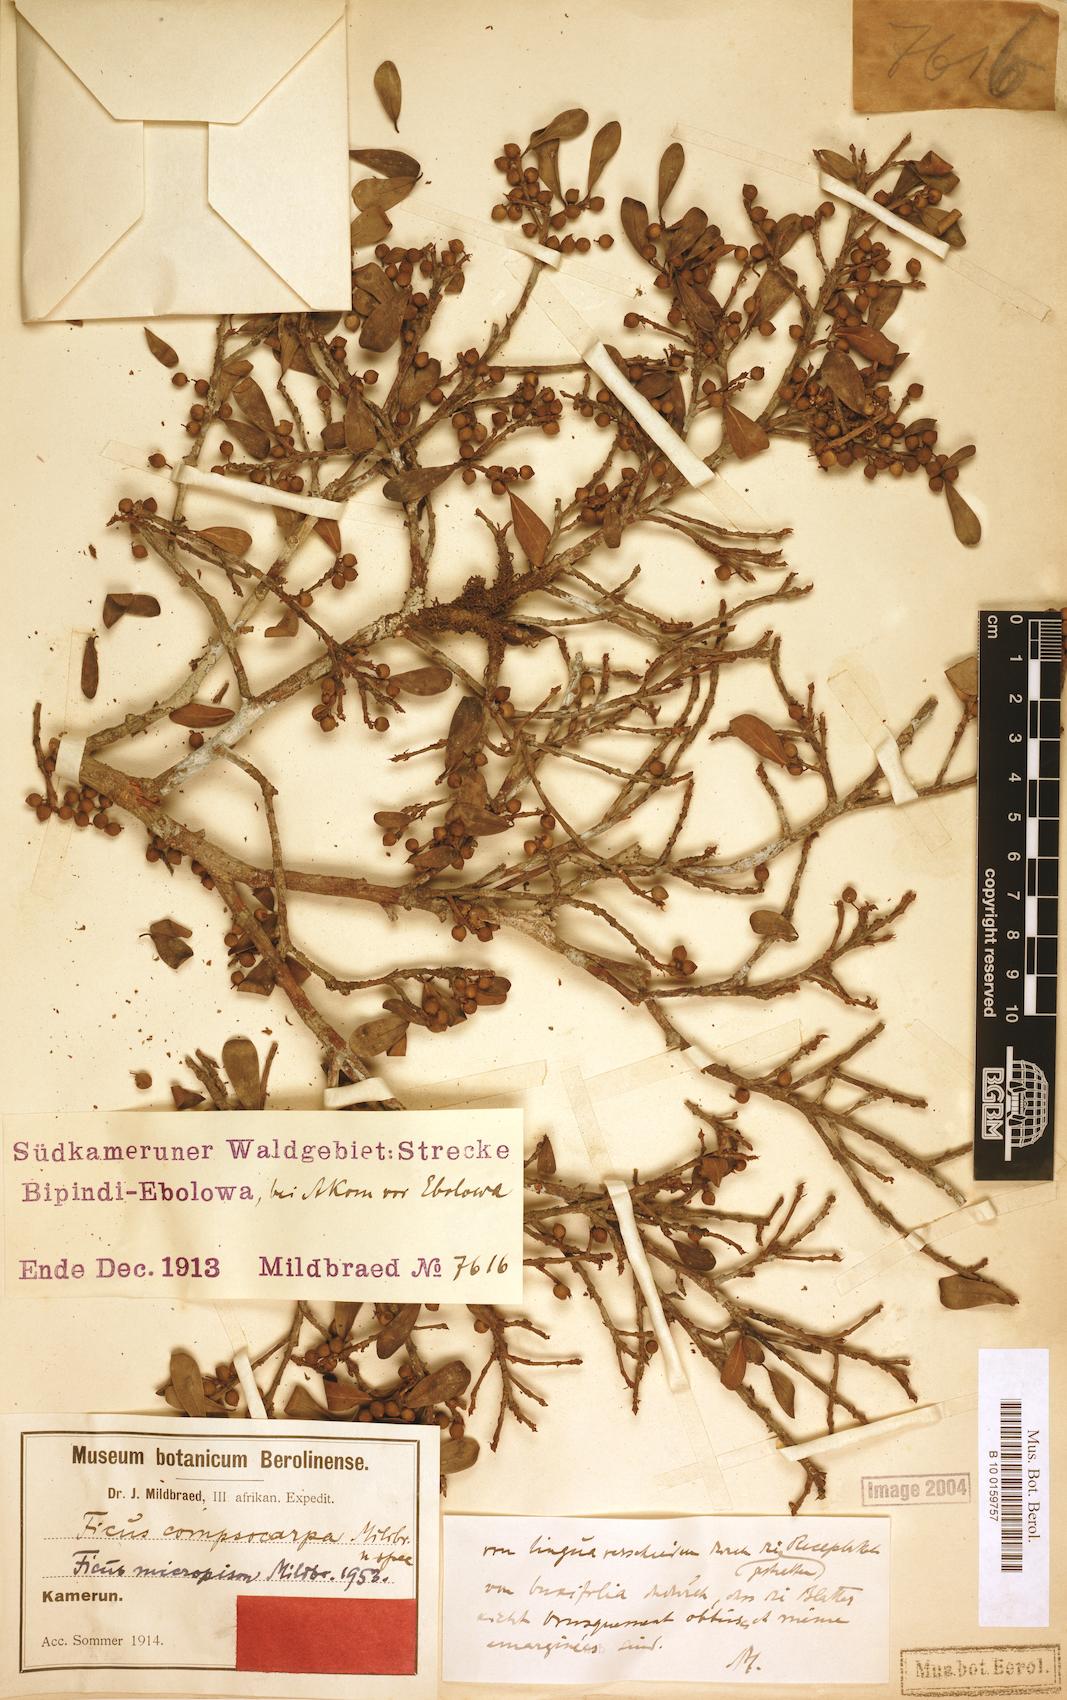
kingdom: Plantae
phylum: Tracheophyta
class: Magnoliopsida
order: Rosales
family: Moraceae
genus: Ficus
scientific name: Ficus lingua
